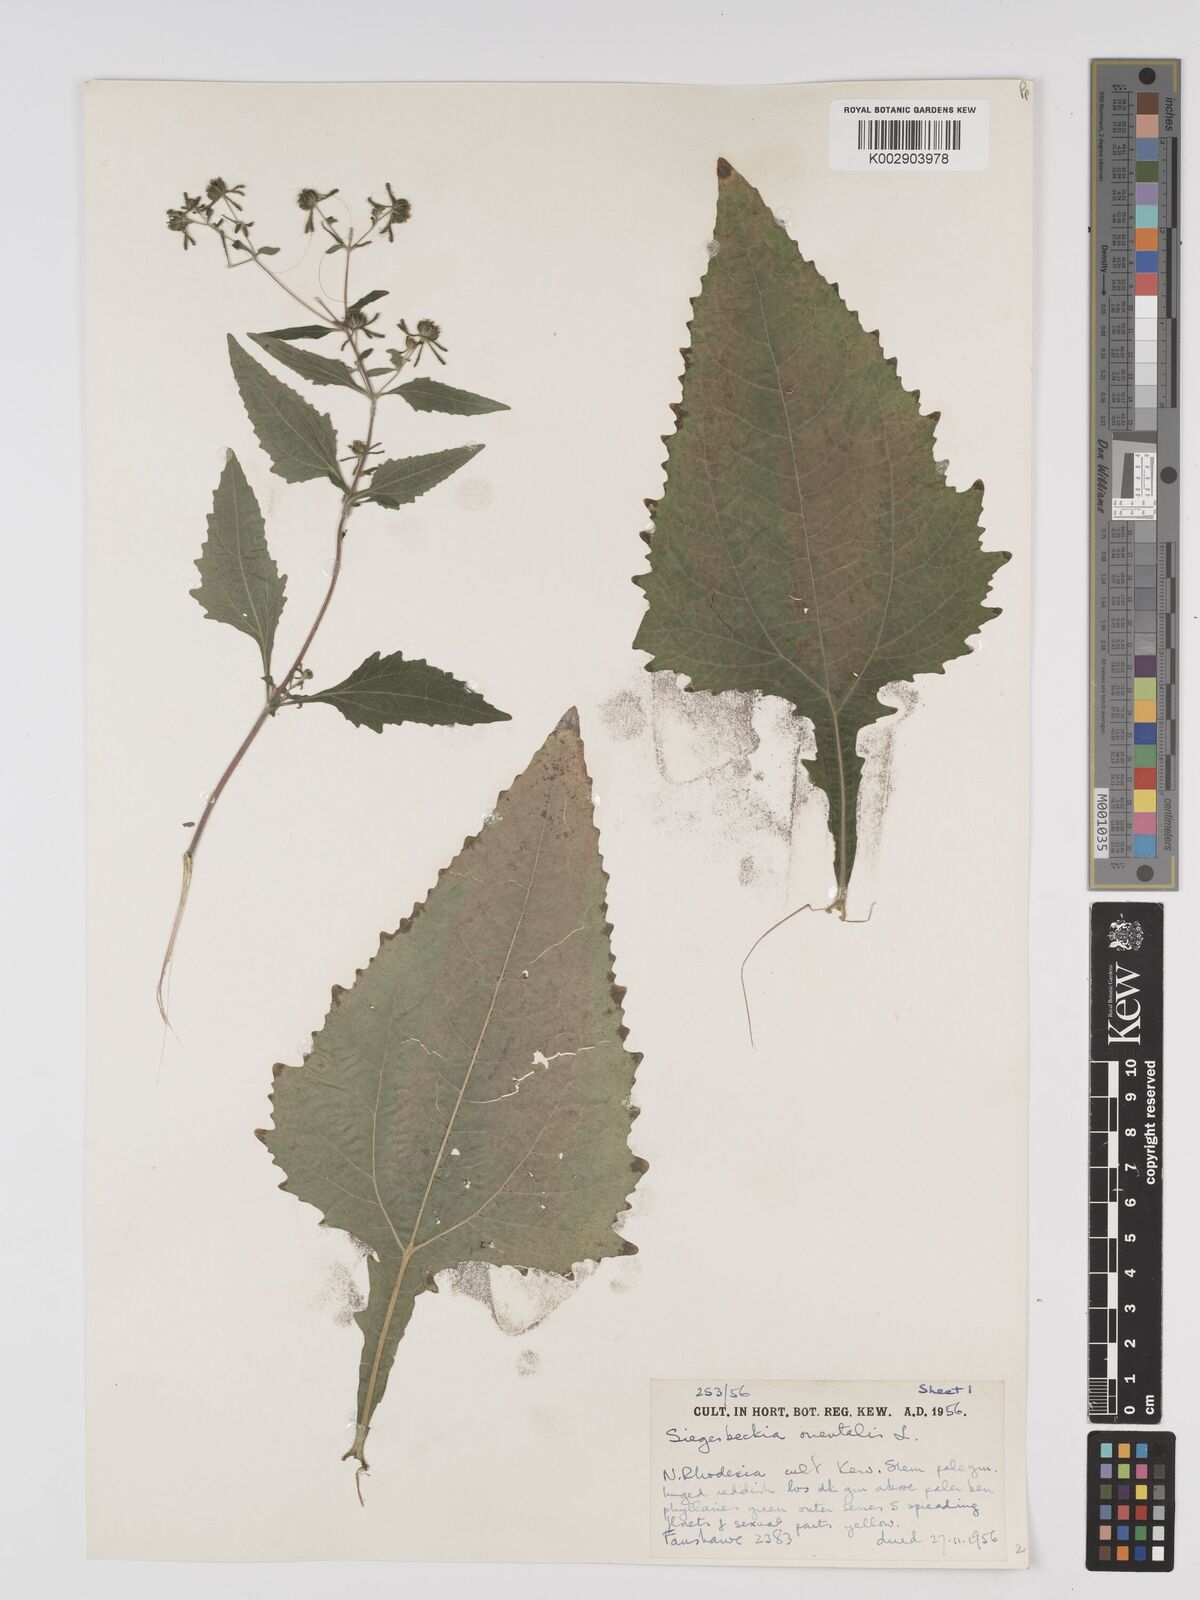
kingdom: Plantae
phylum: Tracheophyta
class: Magnoliopsida
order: Asterales
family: Asteraceae
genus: Sigesbeckia
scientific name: Sigesbeckia orientalis
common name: Eastern st paul's-wort
